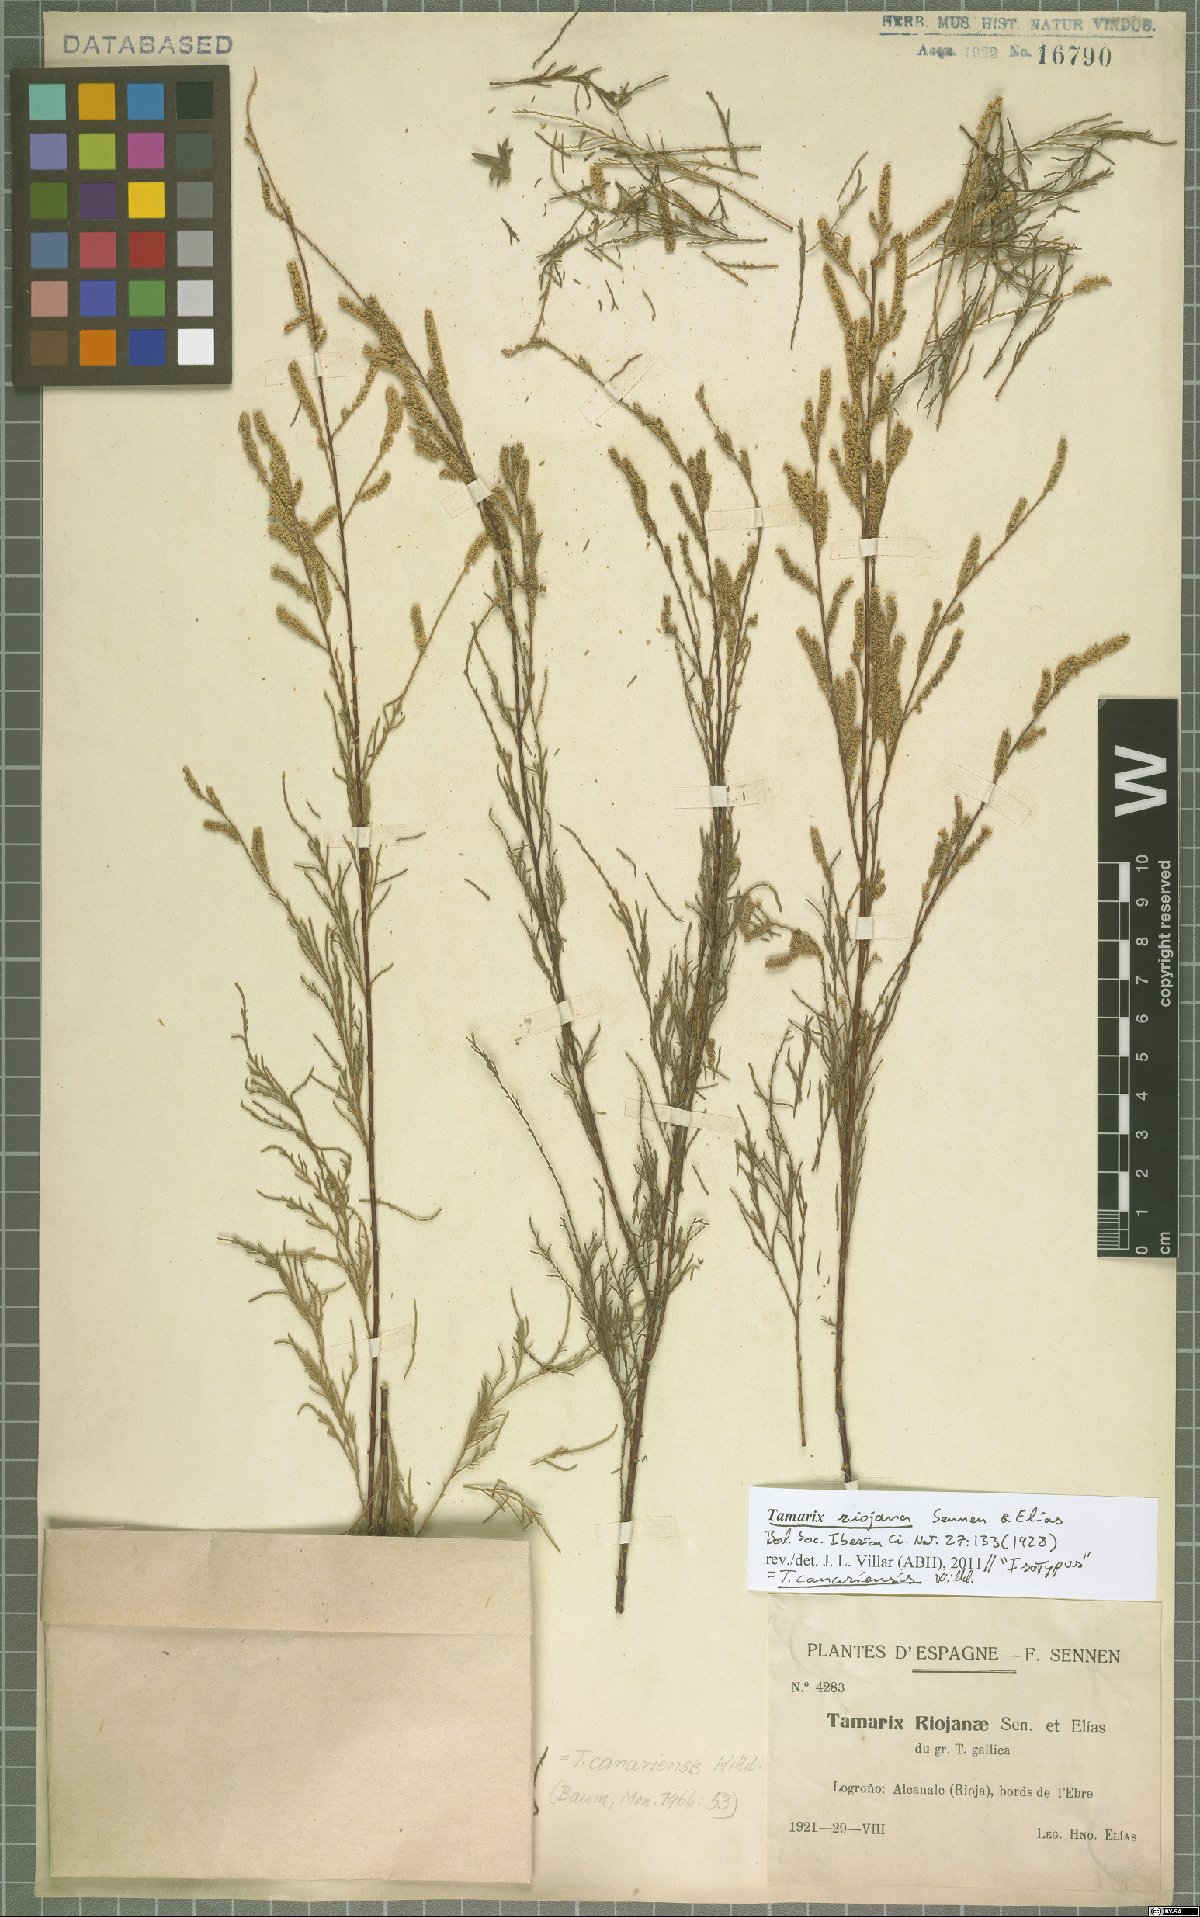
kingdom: Plantae
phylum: Tracheophyta
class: Magnoliopsida
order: Caryophyllales
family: Tamaricaceae
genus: Tamarix
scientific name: Tamarix canariensis
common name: Canary island tamarisk
